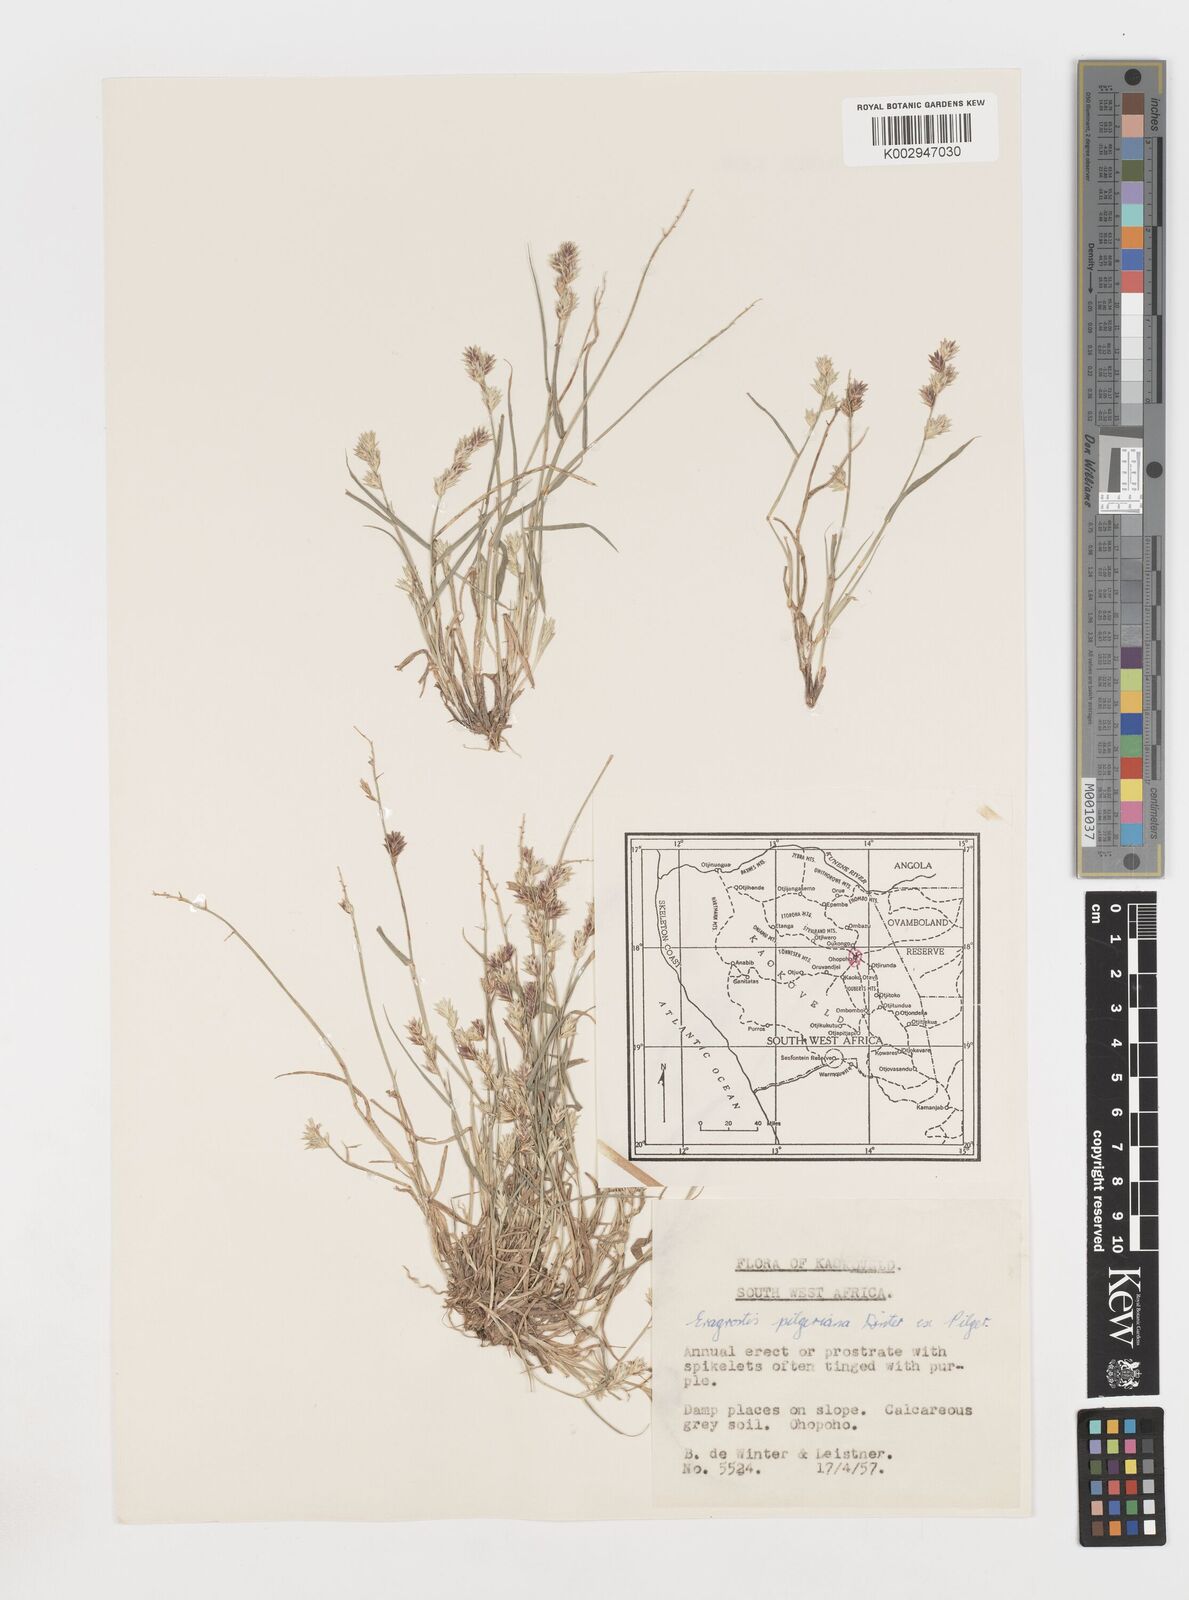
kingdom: Plantae
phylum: Tracheophyta
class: Liliopsida
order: Poales
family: Poaceae
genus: Eragrostis
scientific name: Eragrostis pilgeriana
